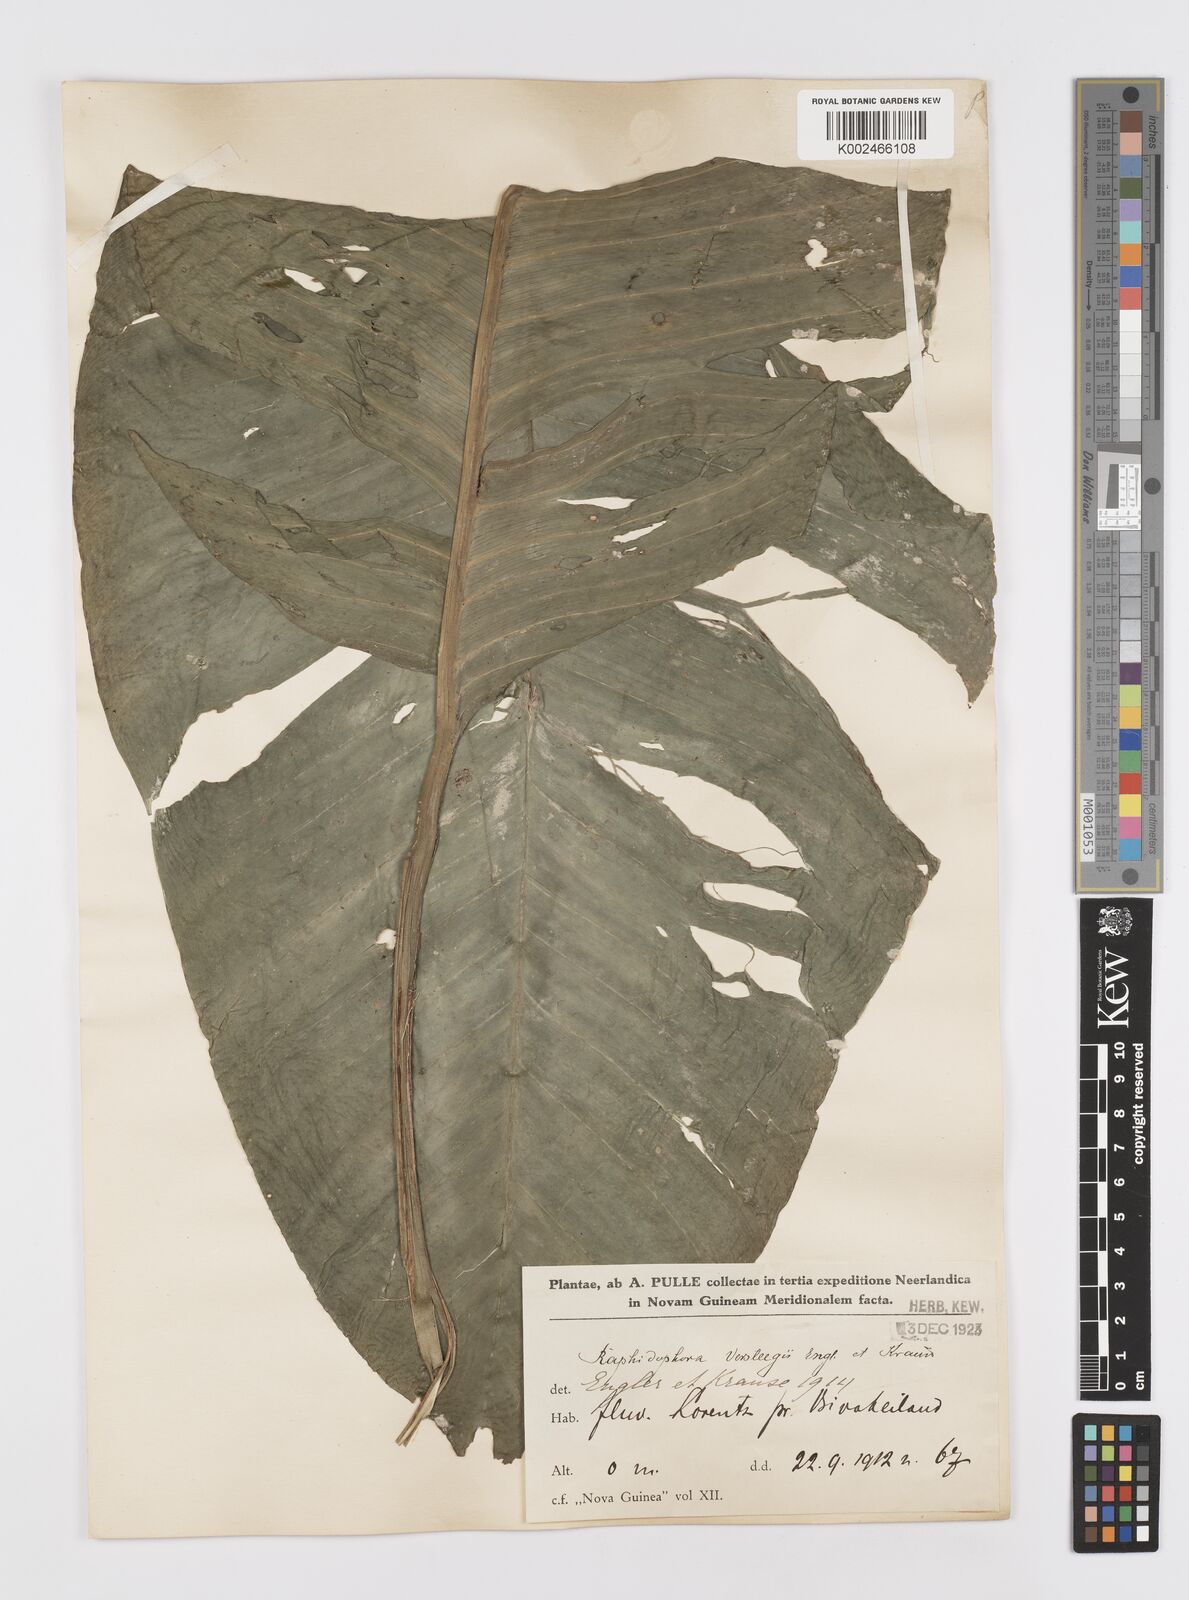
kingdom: Plantae
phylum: Tracheophyta
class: Liliopsida
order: Alismatales
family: Araceae
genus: Rhaphidophora
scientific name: Rhaphidophora versteegii
